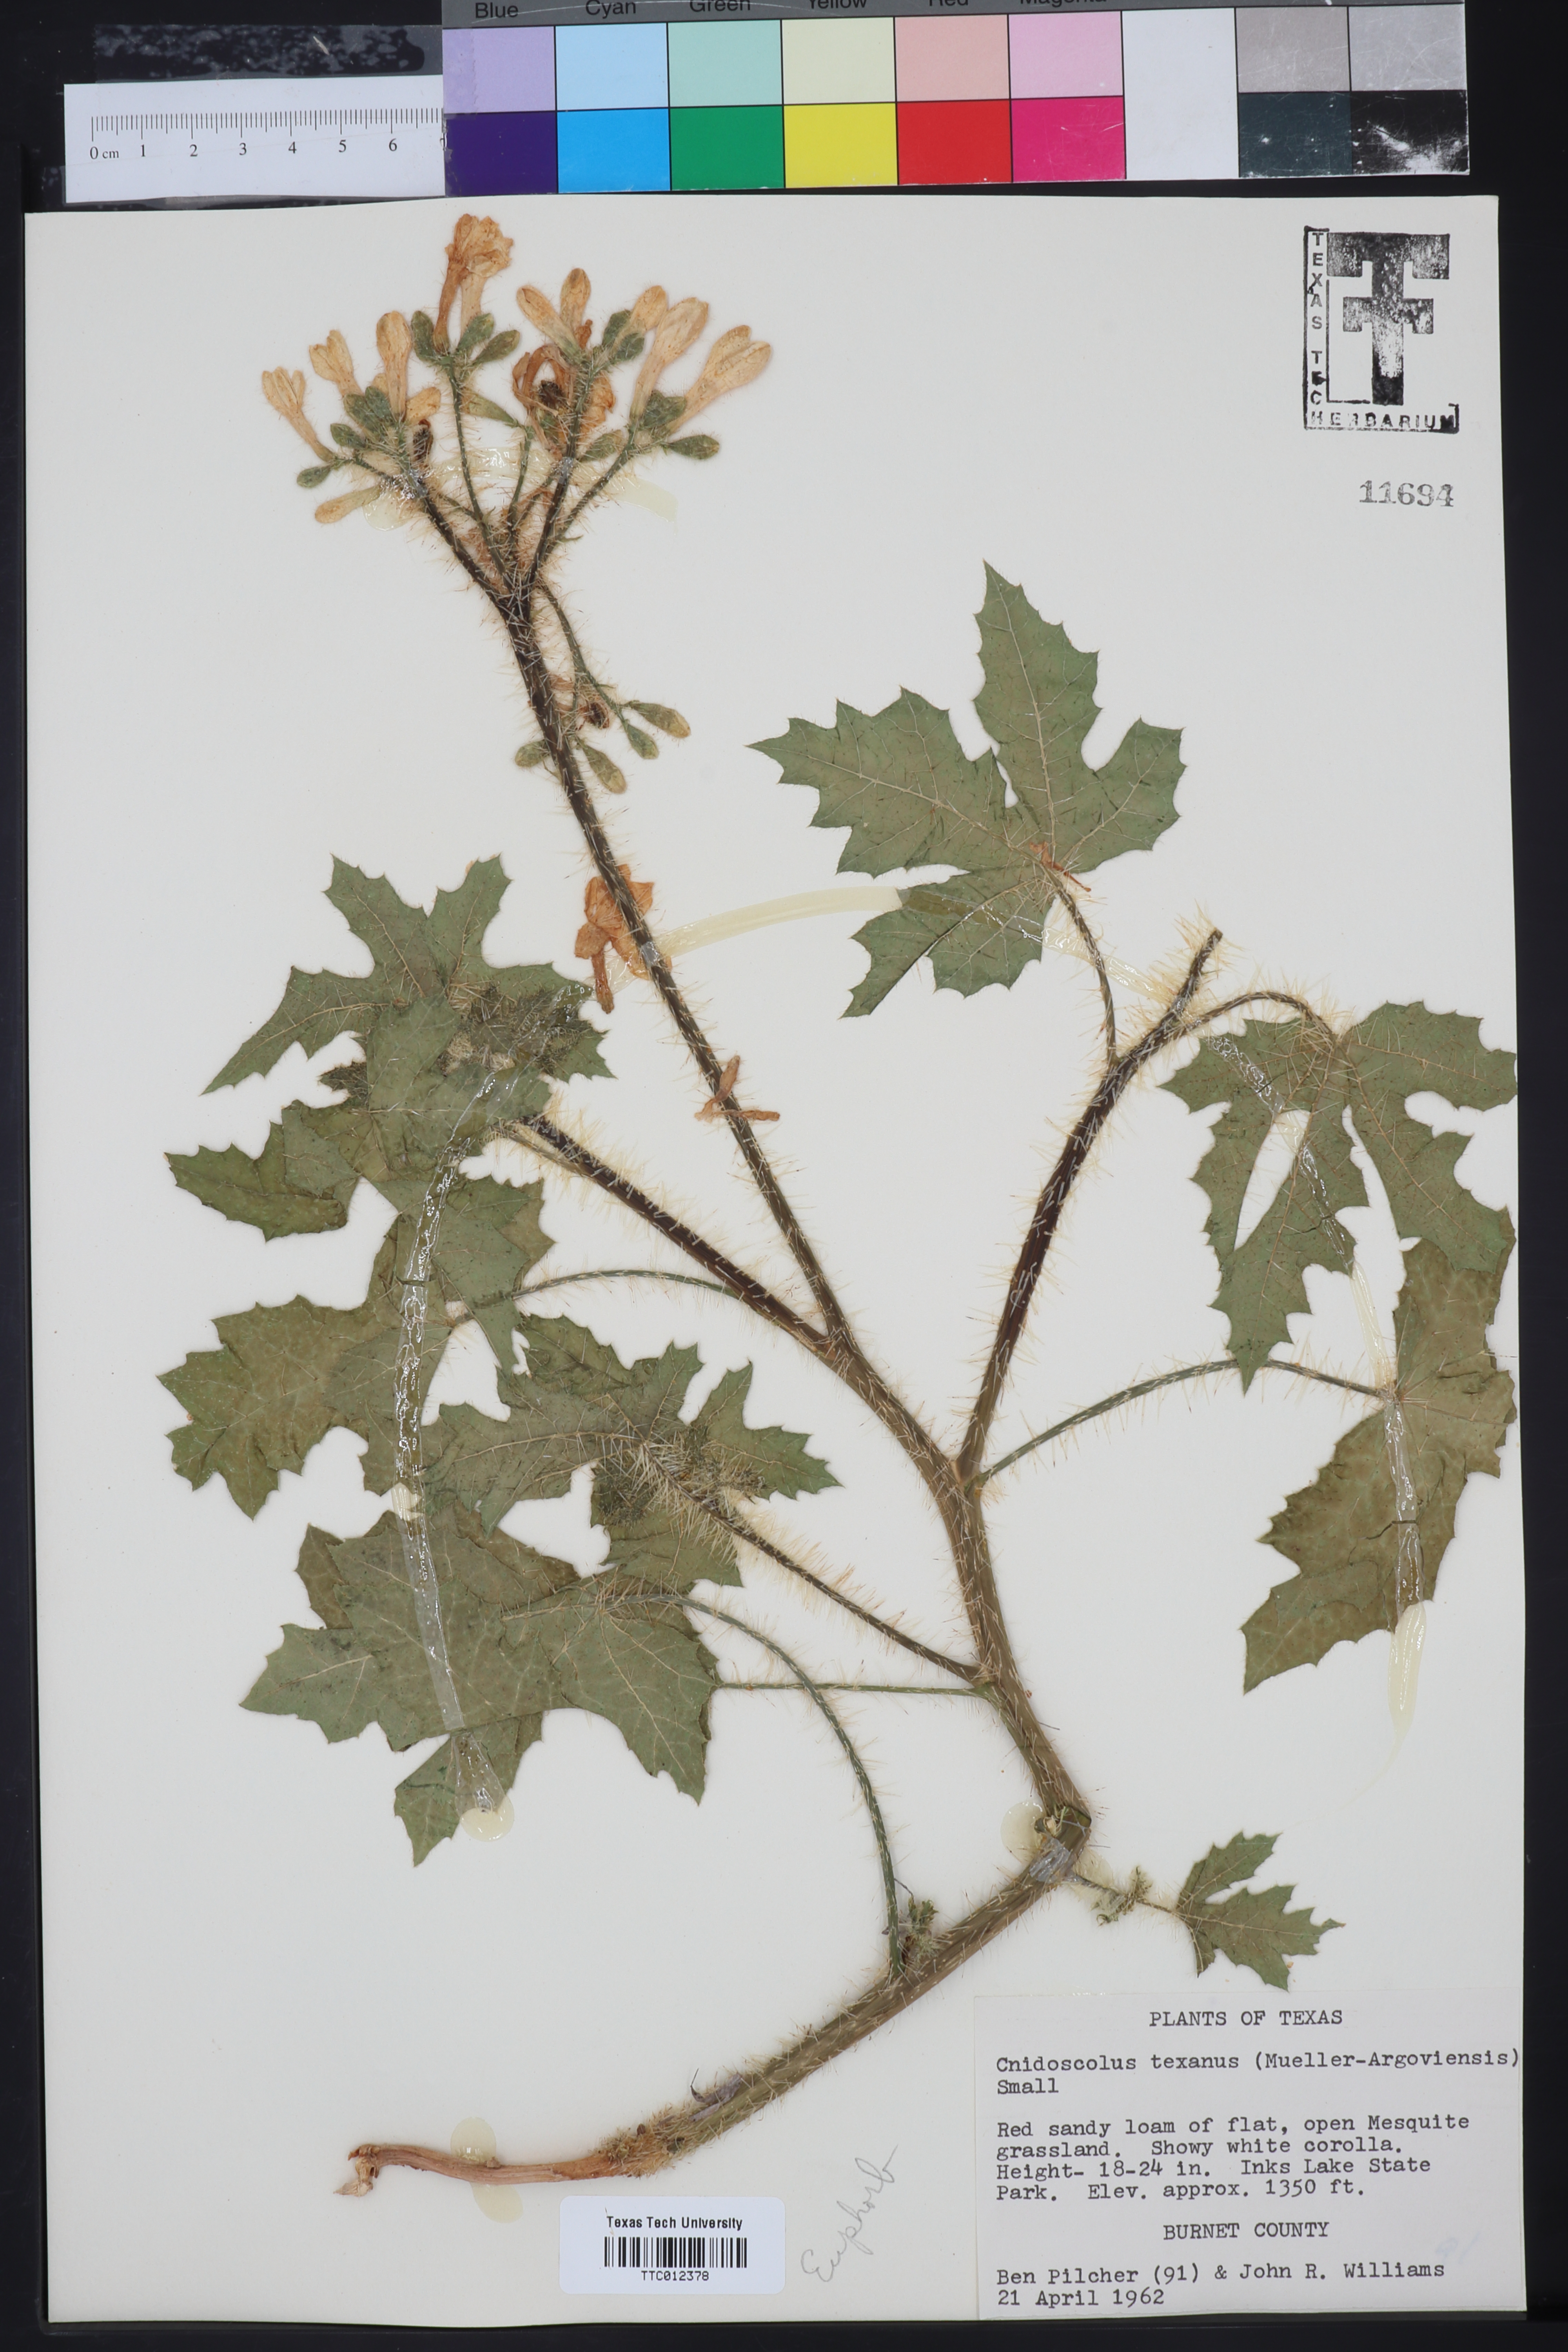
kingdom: Plantae
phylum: Tracheophyta
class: Magnoliopsida
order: Malpighiales
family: Euphorbiaceae
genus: Cnidoscolus
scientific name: Cnidoscolus texanus
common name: Texas bull-nettle
